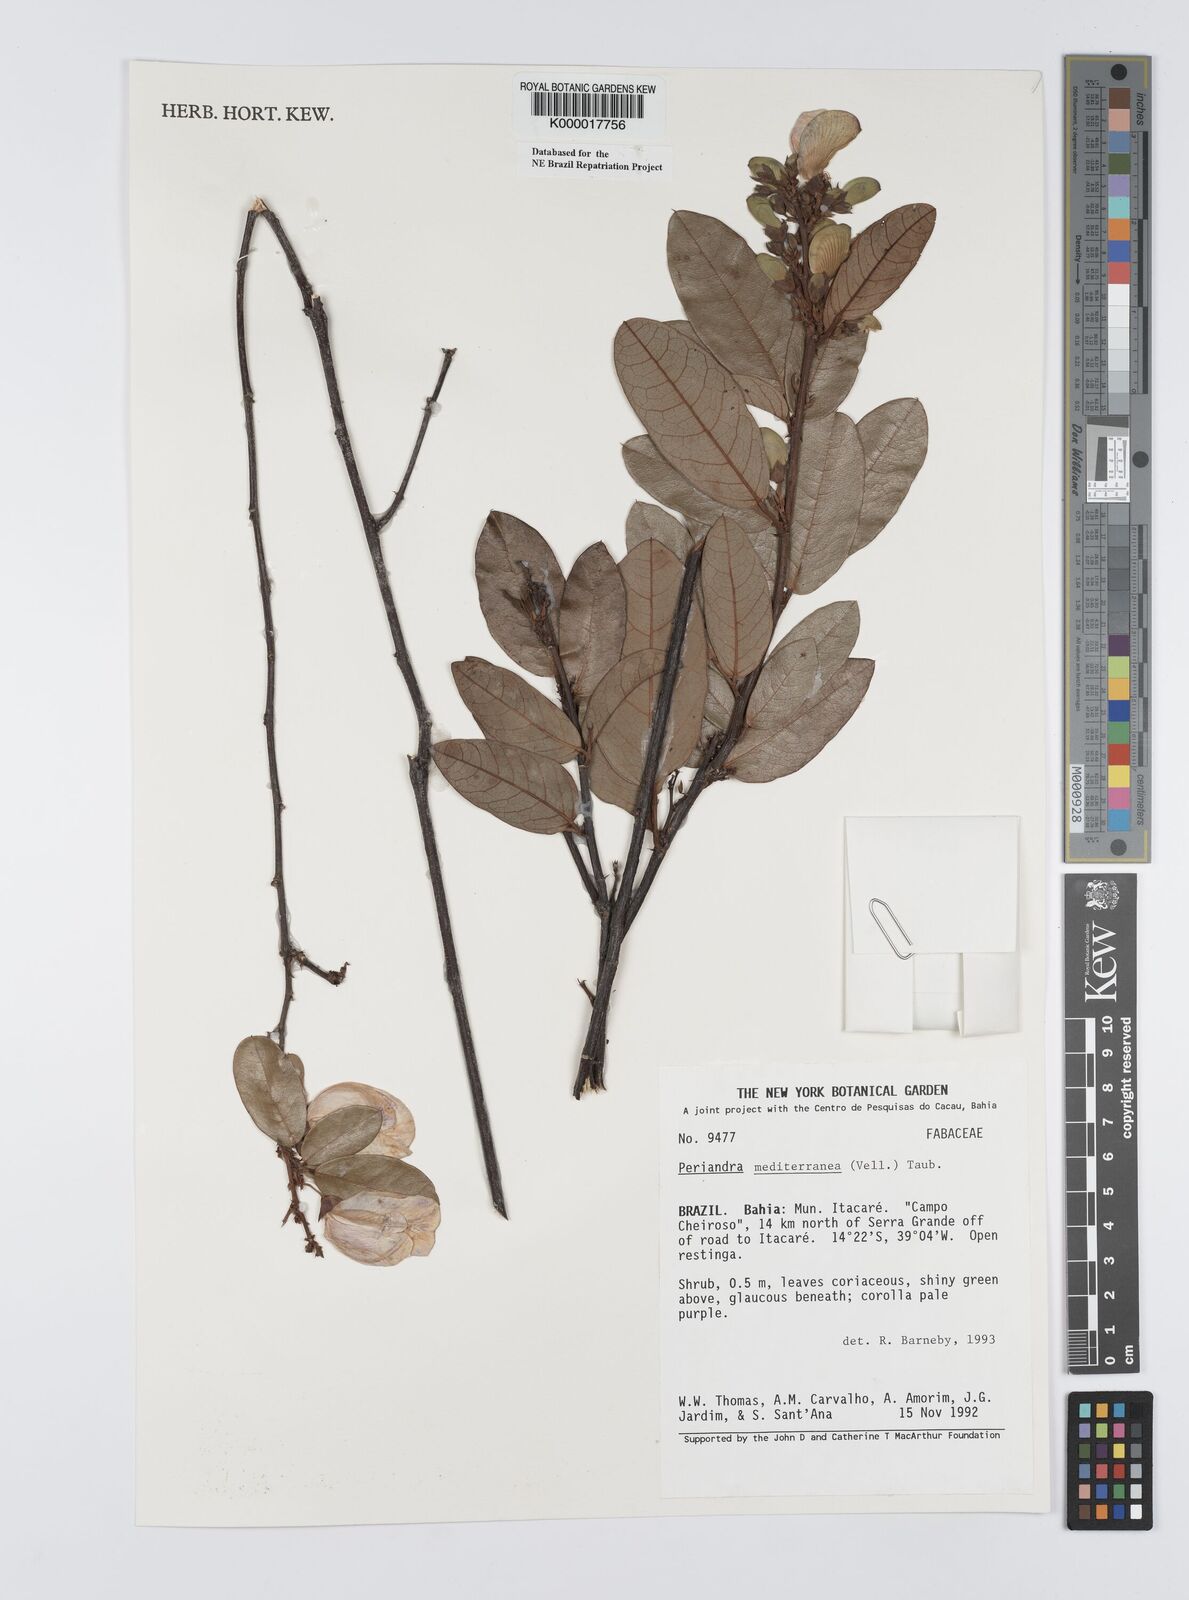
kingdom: Plantae
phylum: Tracheophyta
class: Magnoliopsida
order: Fabales
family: Fabaceae
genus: Periandra
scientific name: Periandra mediterranea
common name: Brazilian licorice
